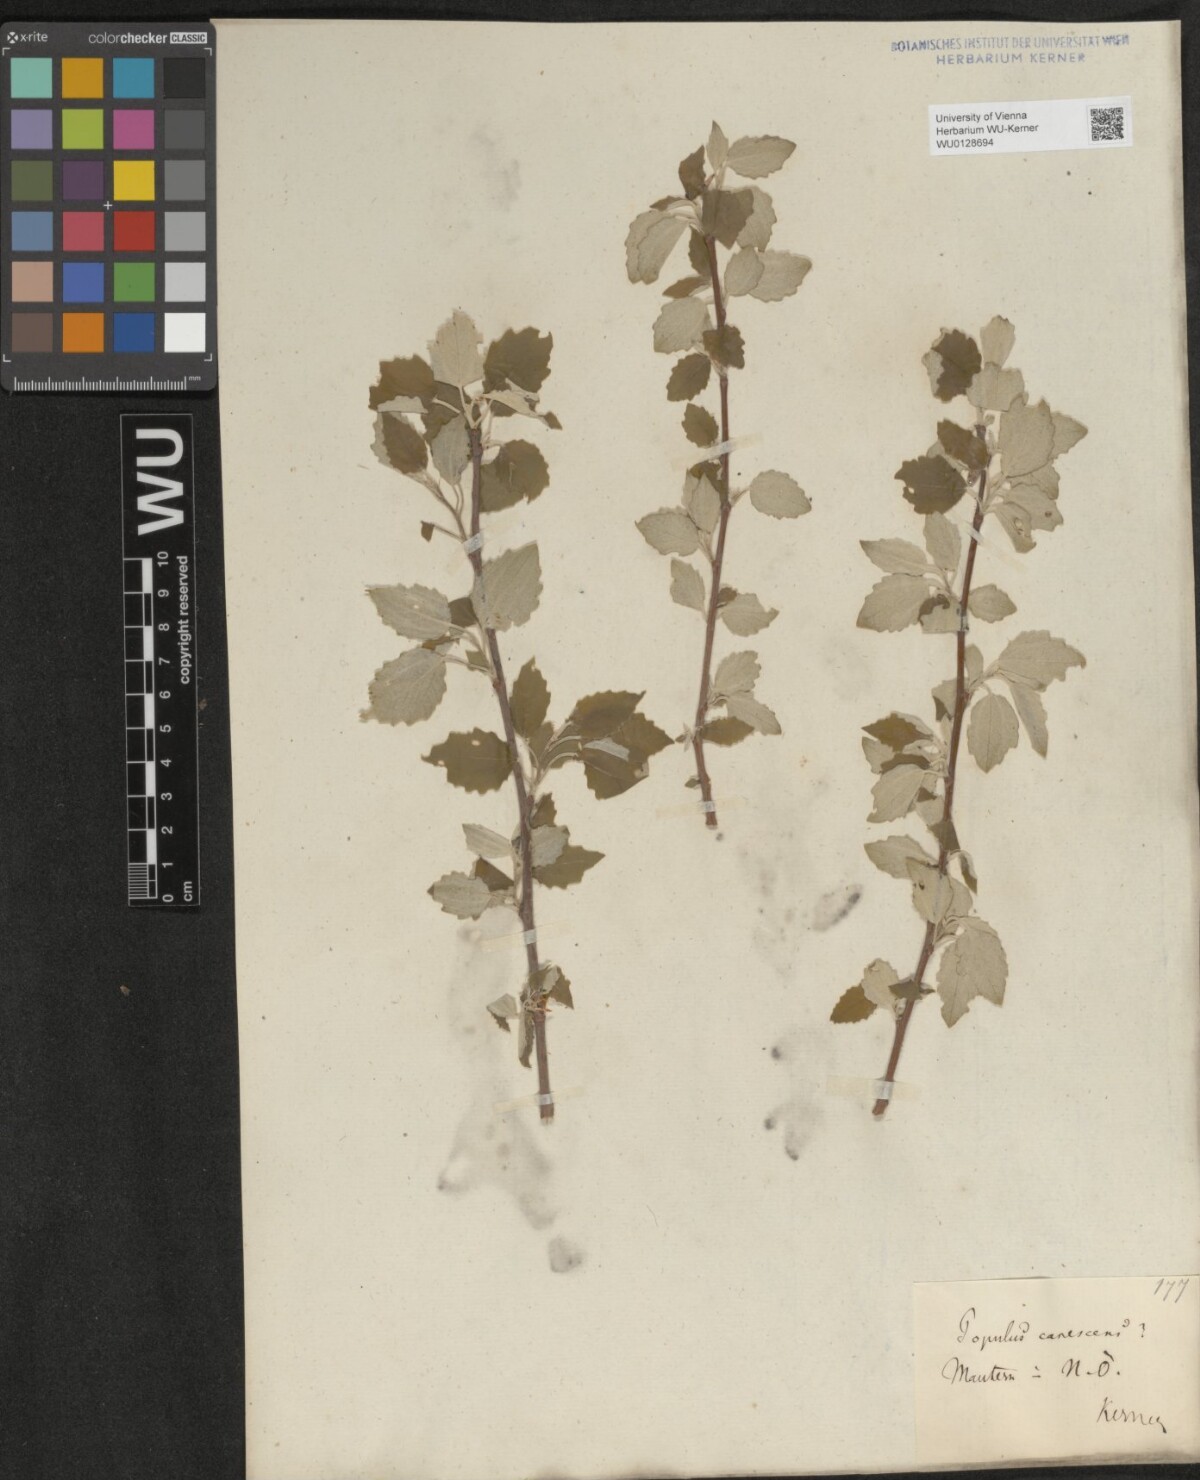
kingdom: Plantae
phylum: Tracheophyta
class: Magnoliopsida
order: Malpighiales
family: Salicaceae
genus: Populus
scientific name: Populus canescens
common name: Gray poplar
